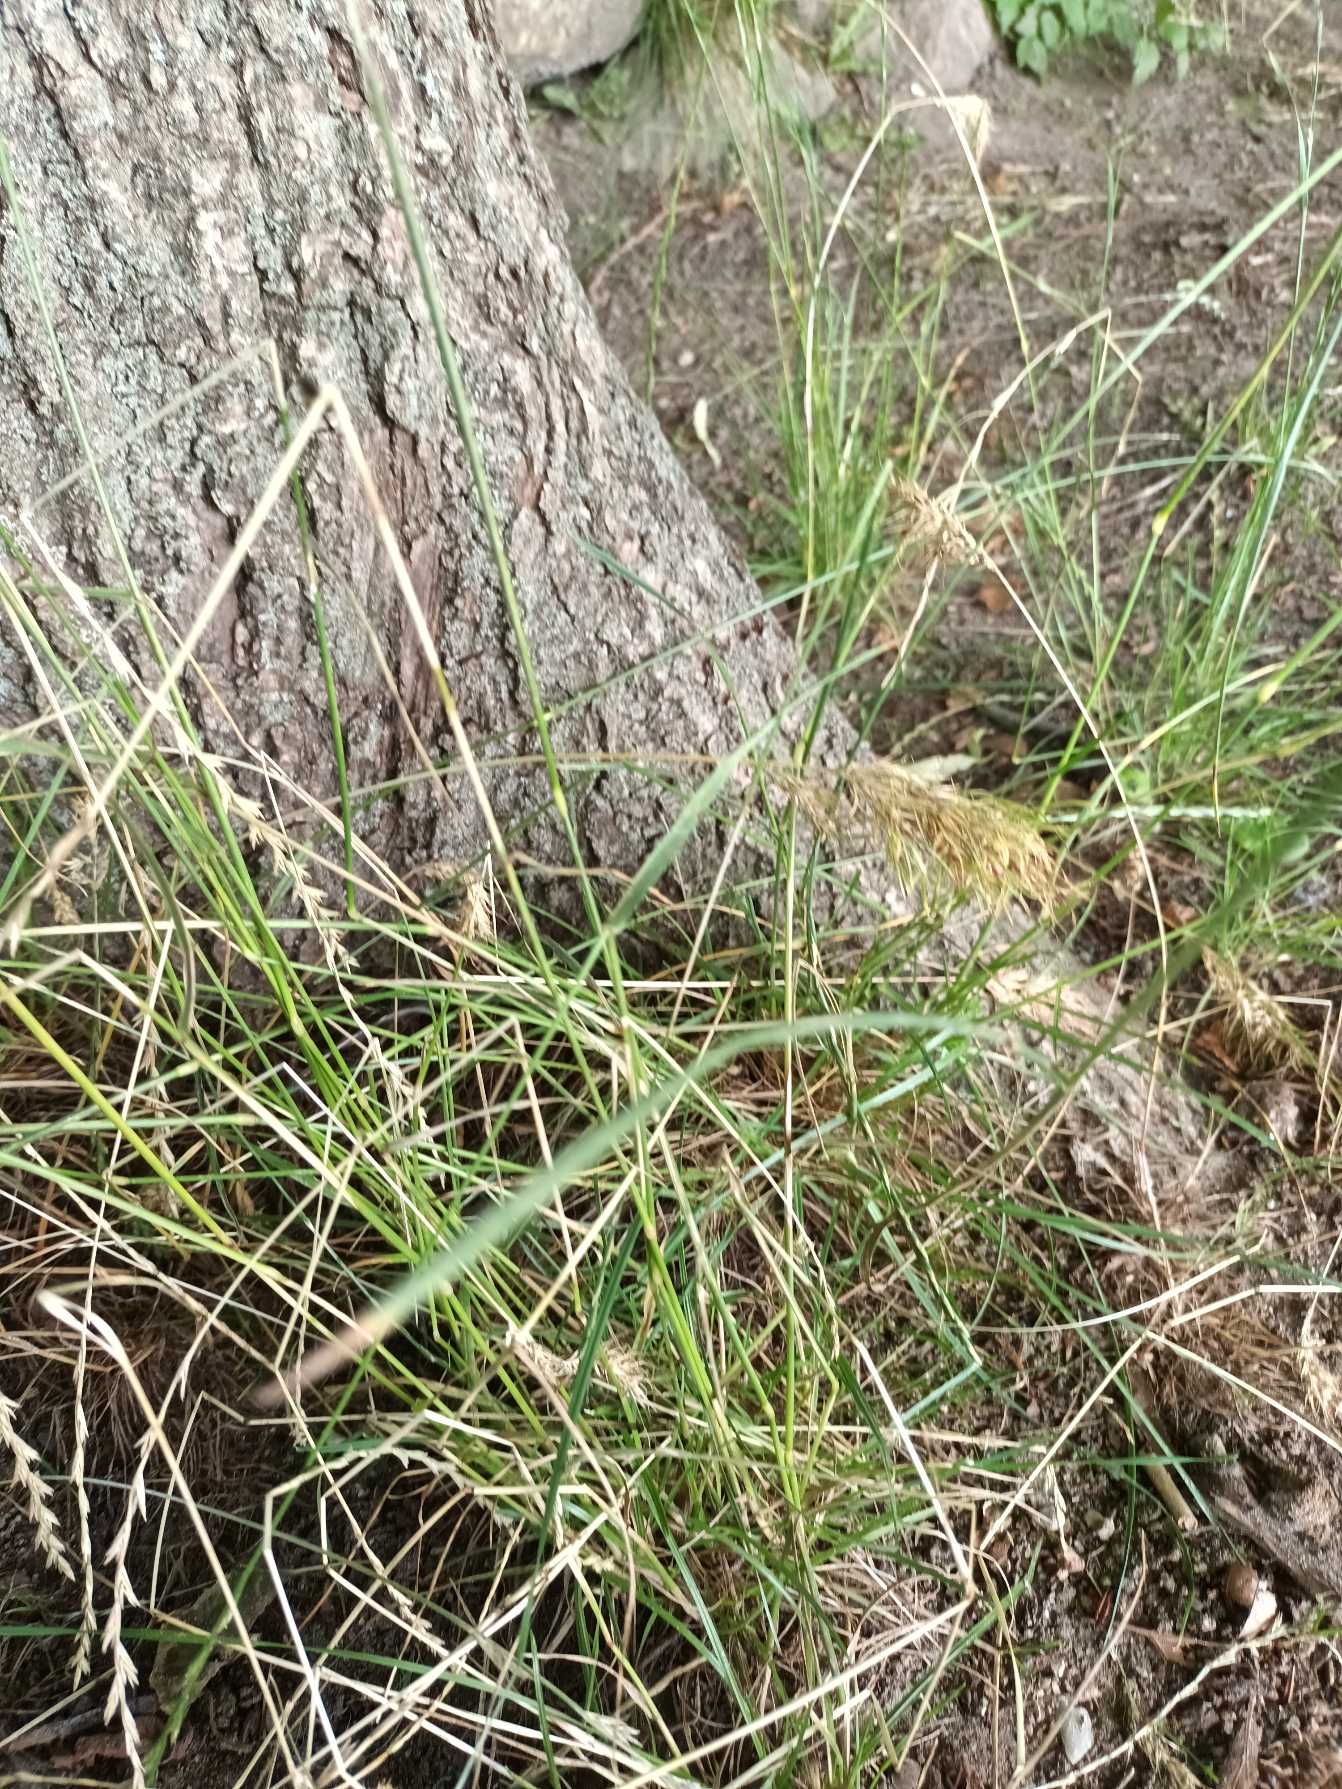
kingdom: Plantae
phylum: Tracheophyta
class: Liliopsida
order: Poales
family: Poaceae
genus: Poa
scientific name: Poa bulbosa
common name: Løg-rapgræs
